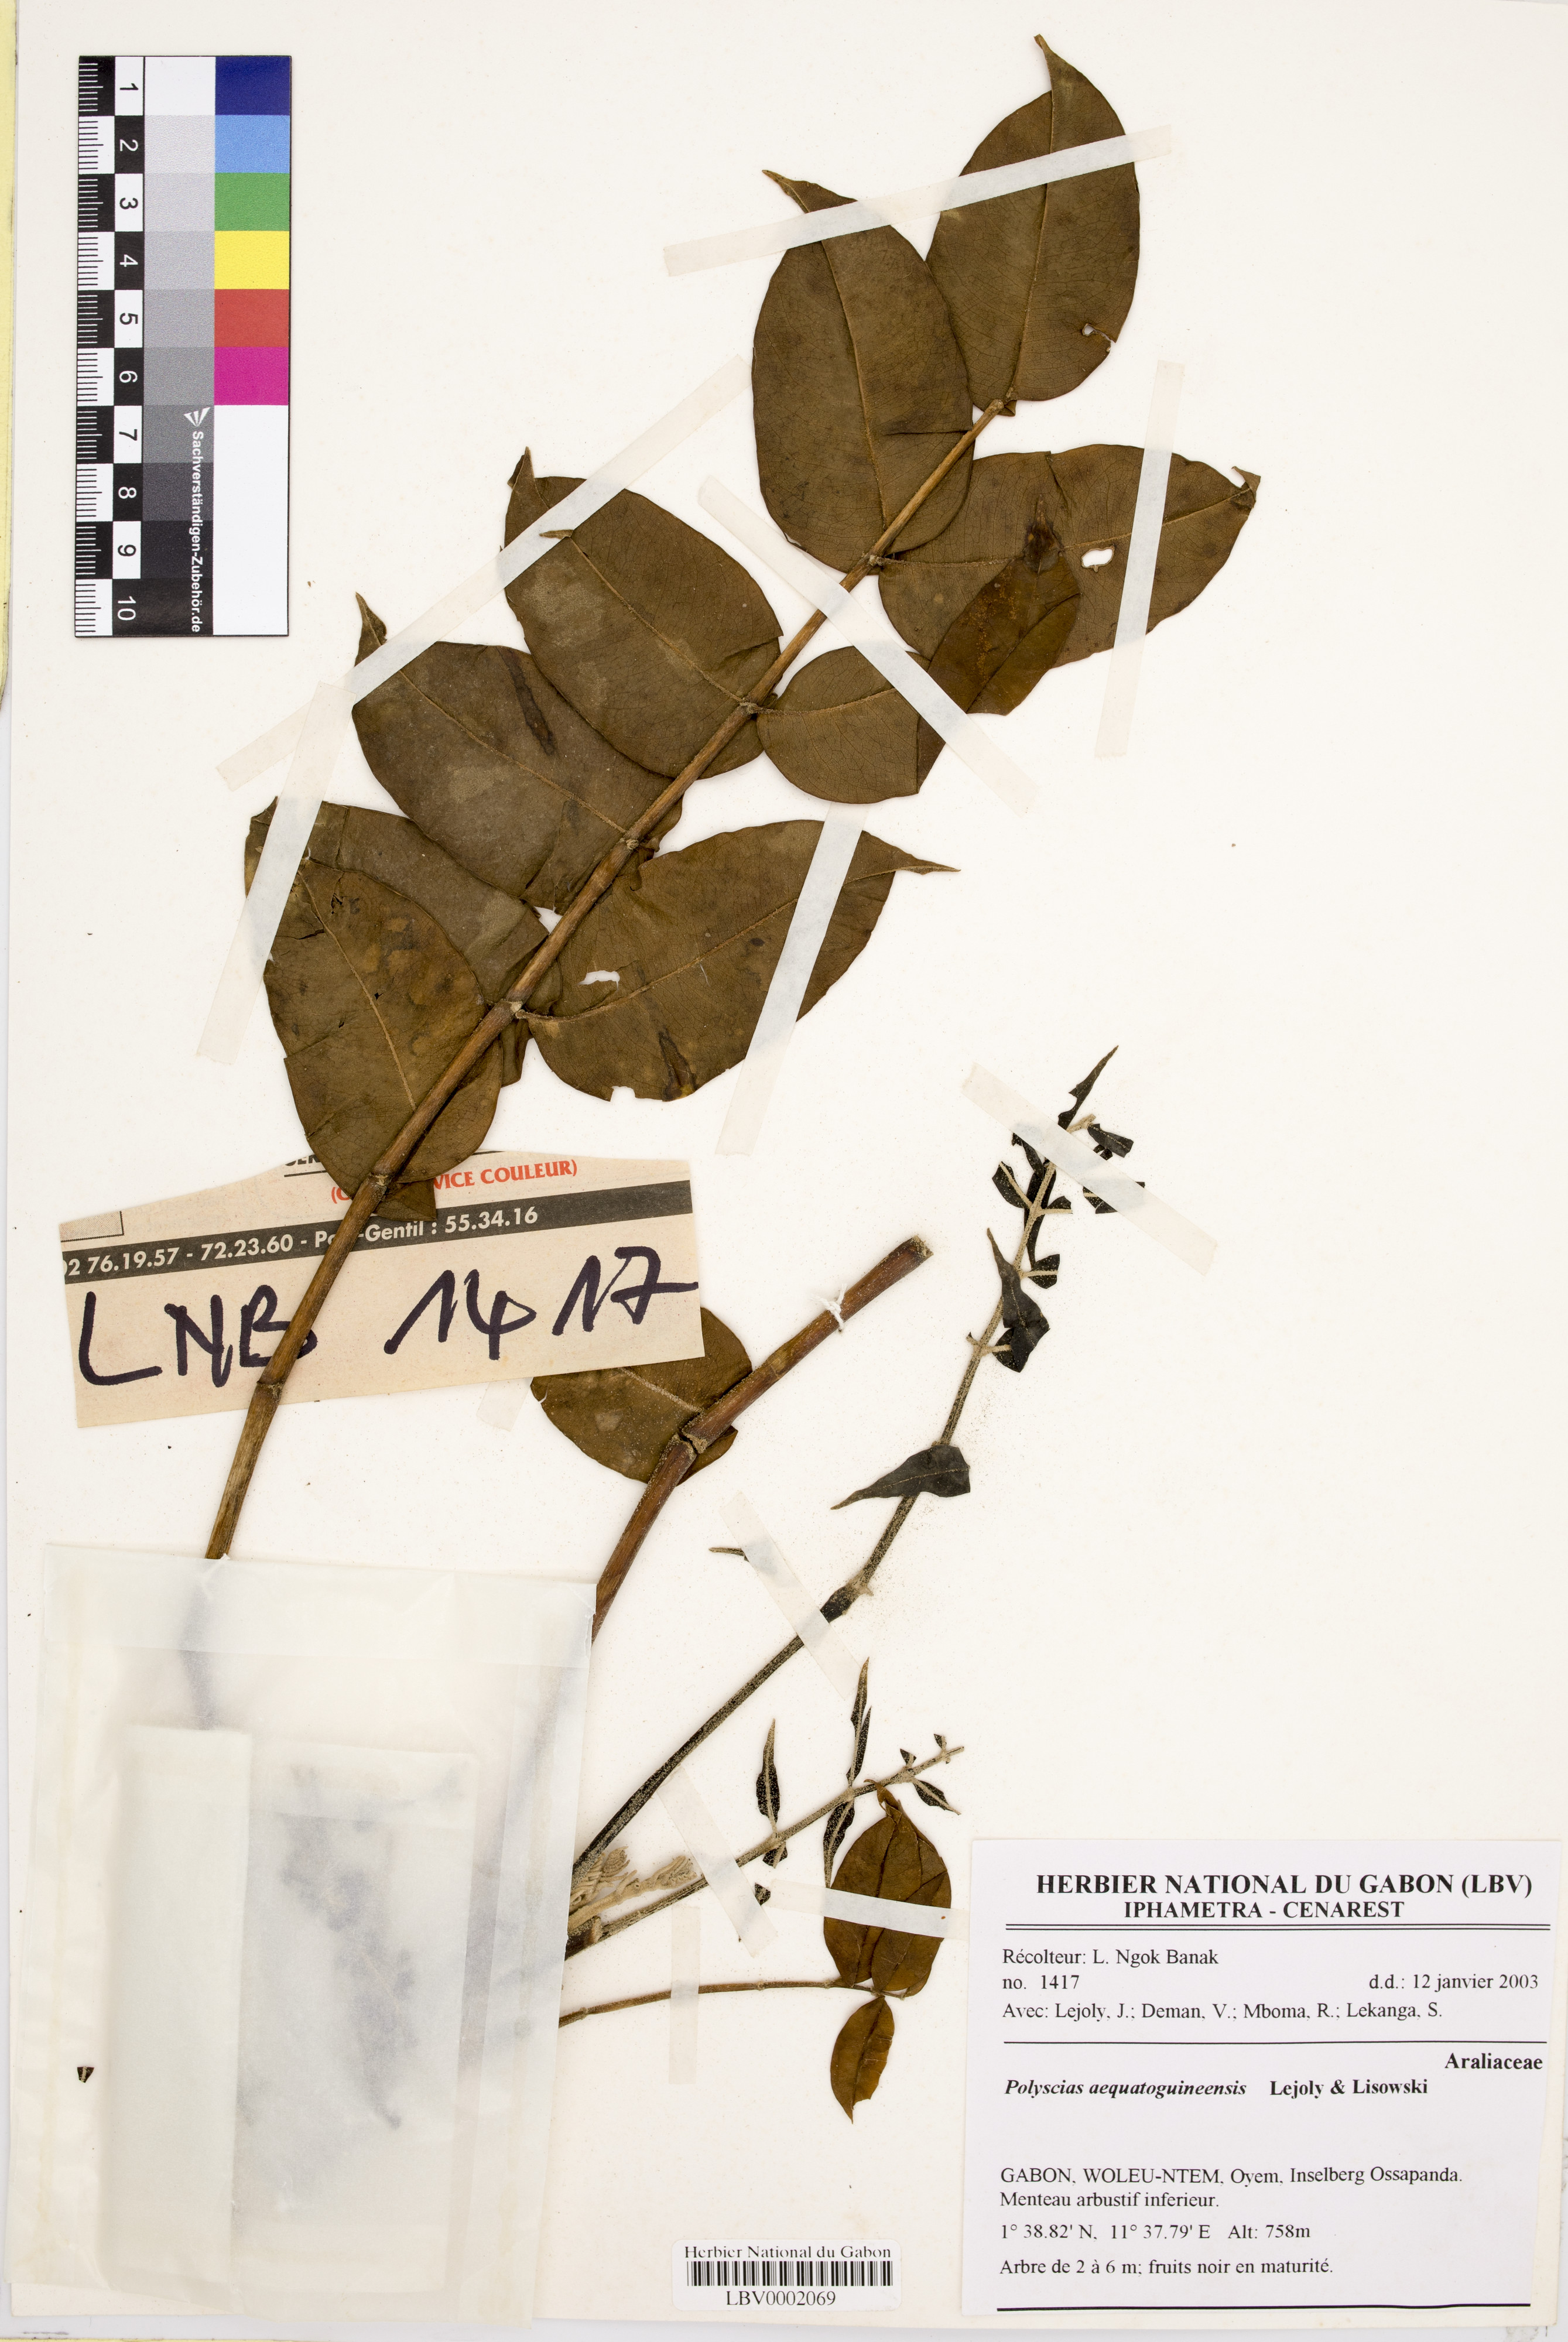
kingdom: Plantae
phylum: Tracheophyta
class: Magnoliopsida
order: Apiales
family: Araliaceae
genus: Polyscias
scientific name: Polyscias aequatoguineensis
